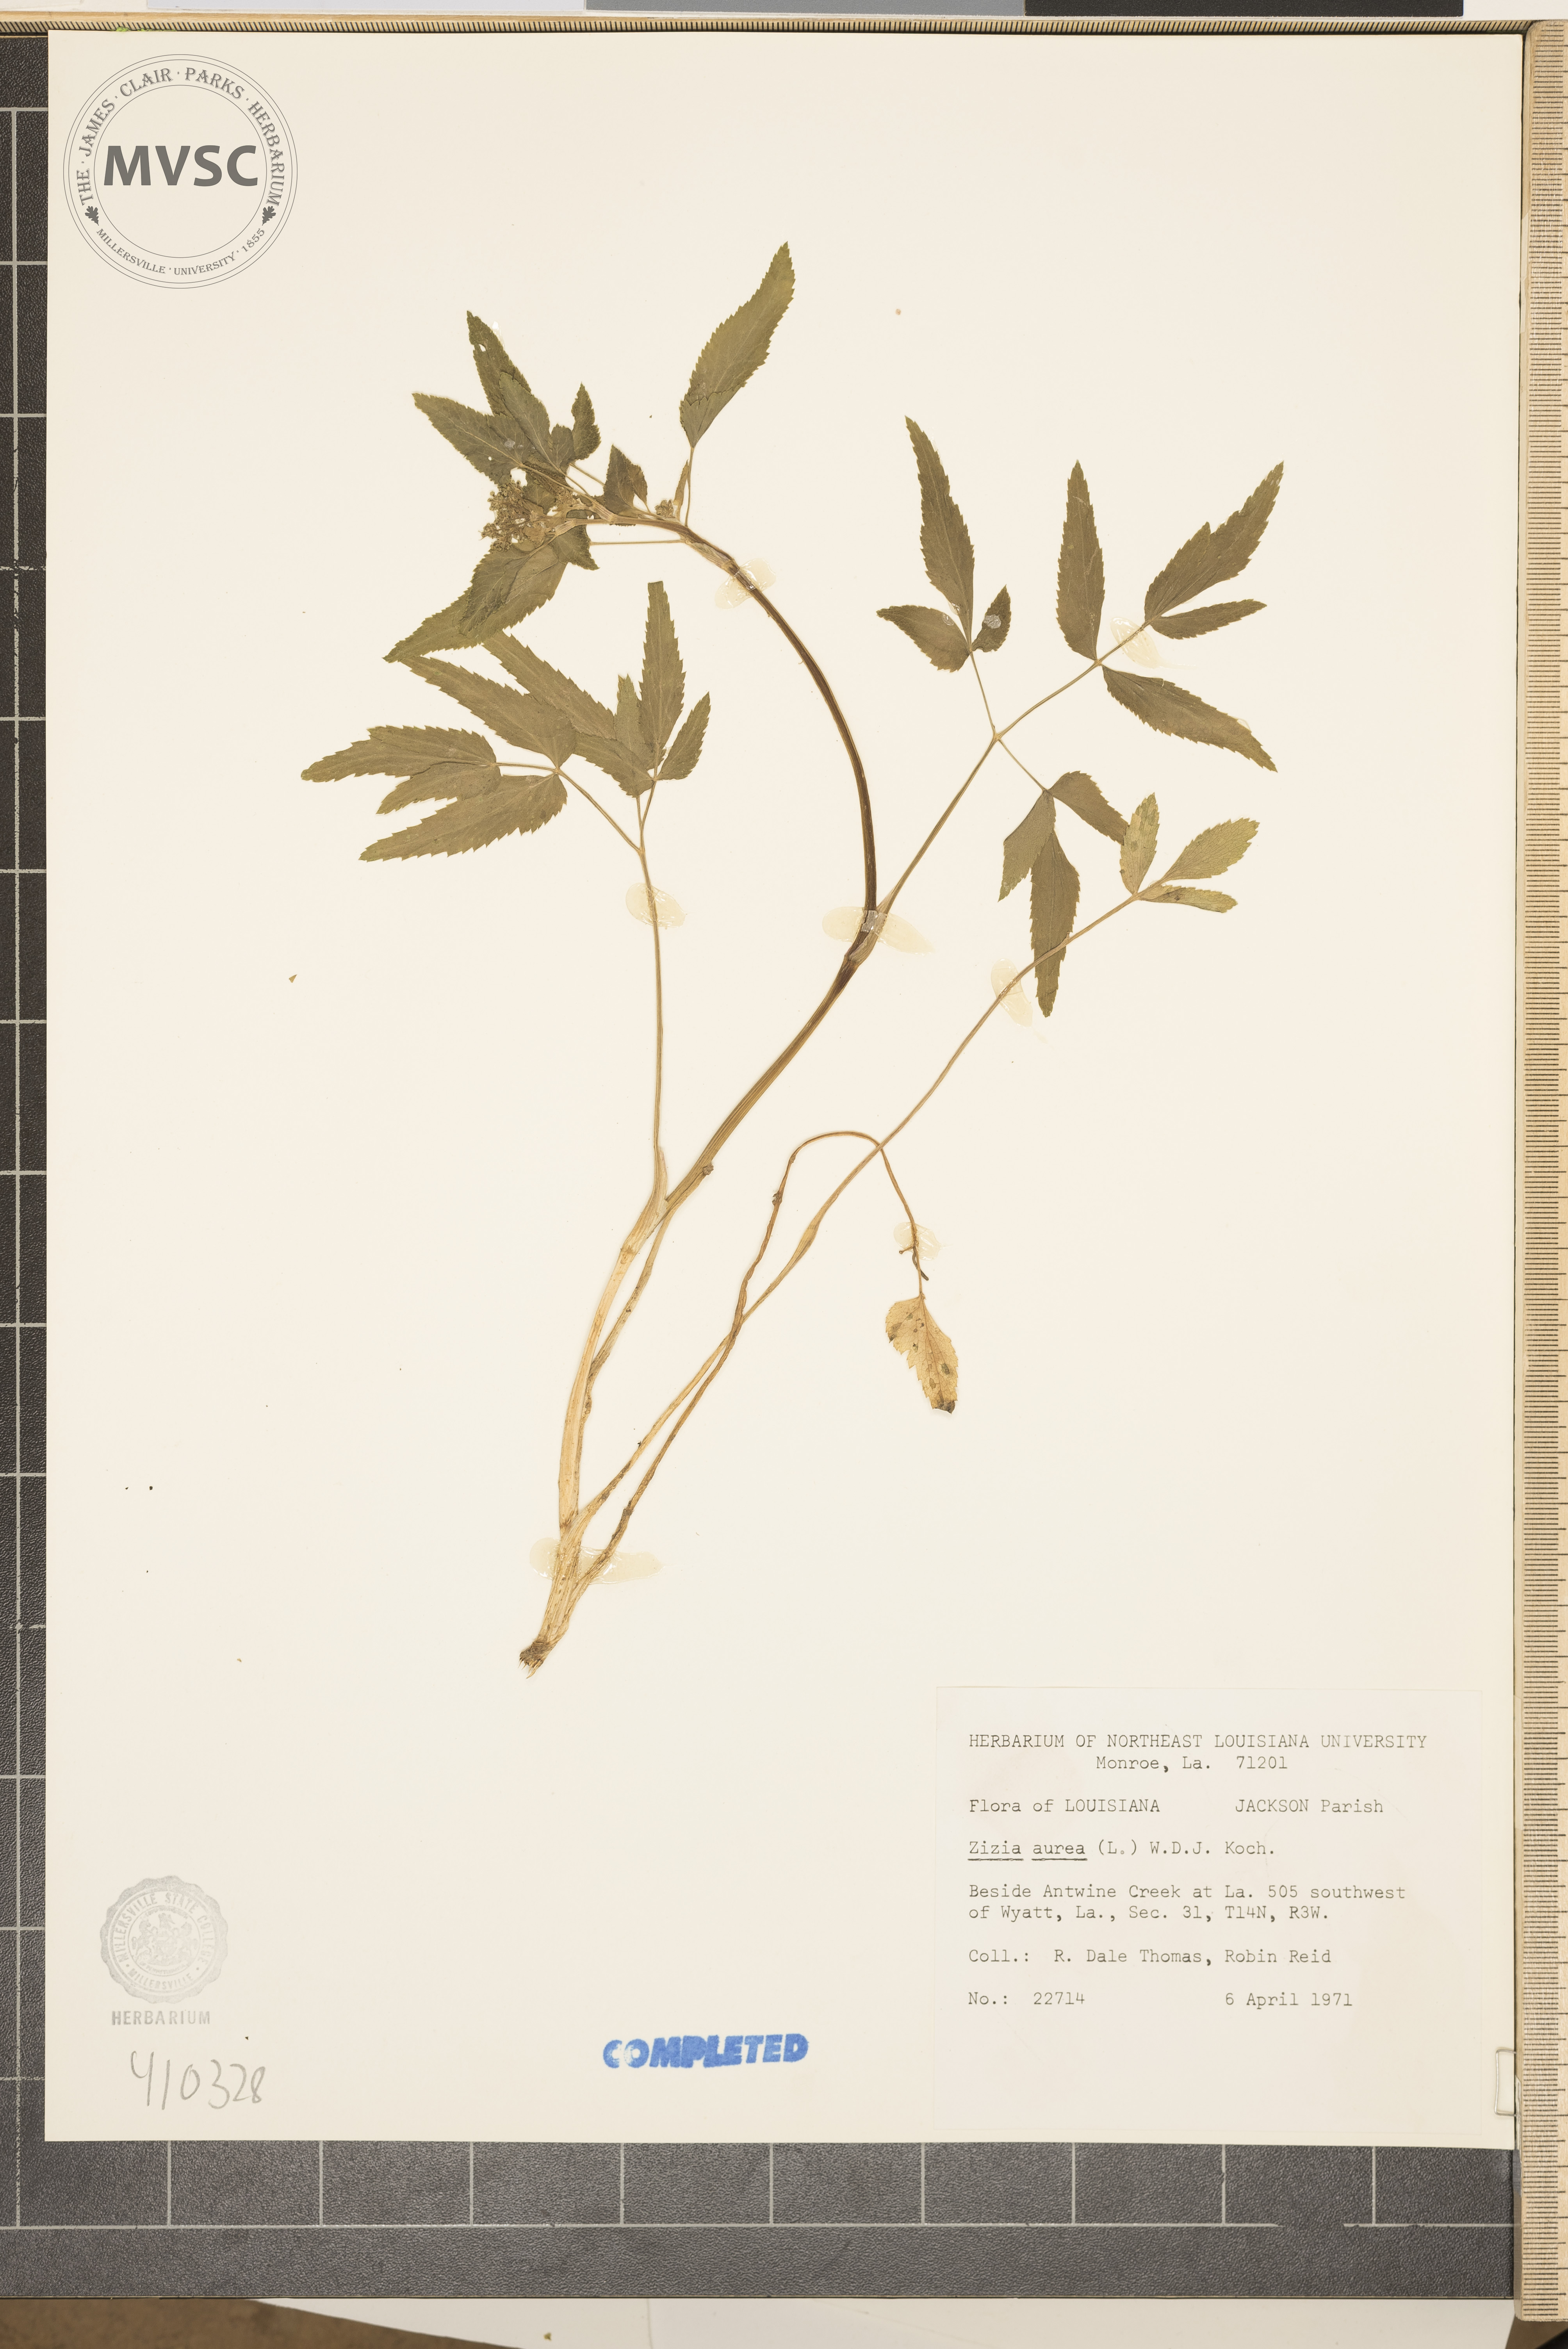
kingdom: Plantae
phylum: Tracheophyta
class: Magnoliopsida
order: Apiales
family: Apiaceae
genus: Zizia
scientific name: Zizia aurea
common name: Golden alexanders
